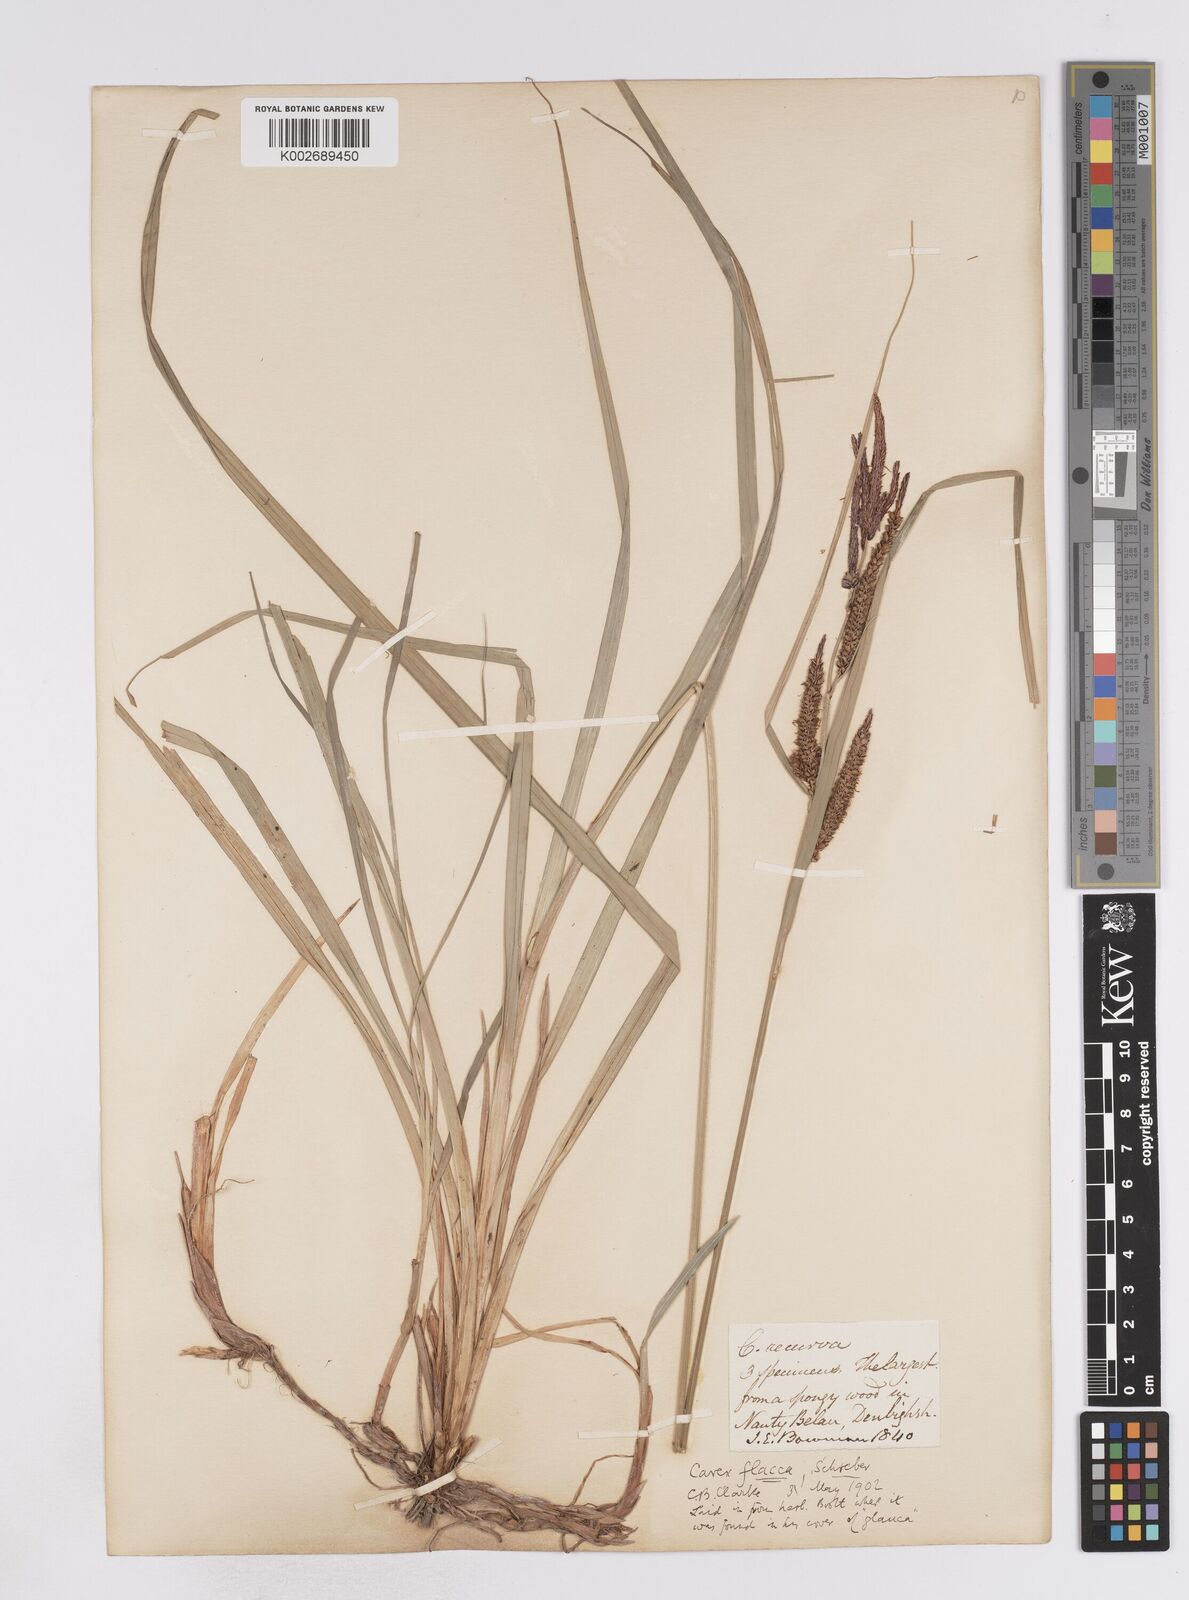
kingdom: Plantae
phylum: Tracheophyta
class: Liliopsida
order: Poales
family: Cyperaceae
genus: Carex
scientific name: Carex flacca
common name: Glaucous sedge
